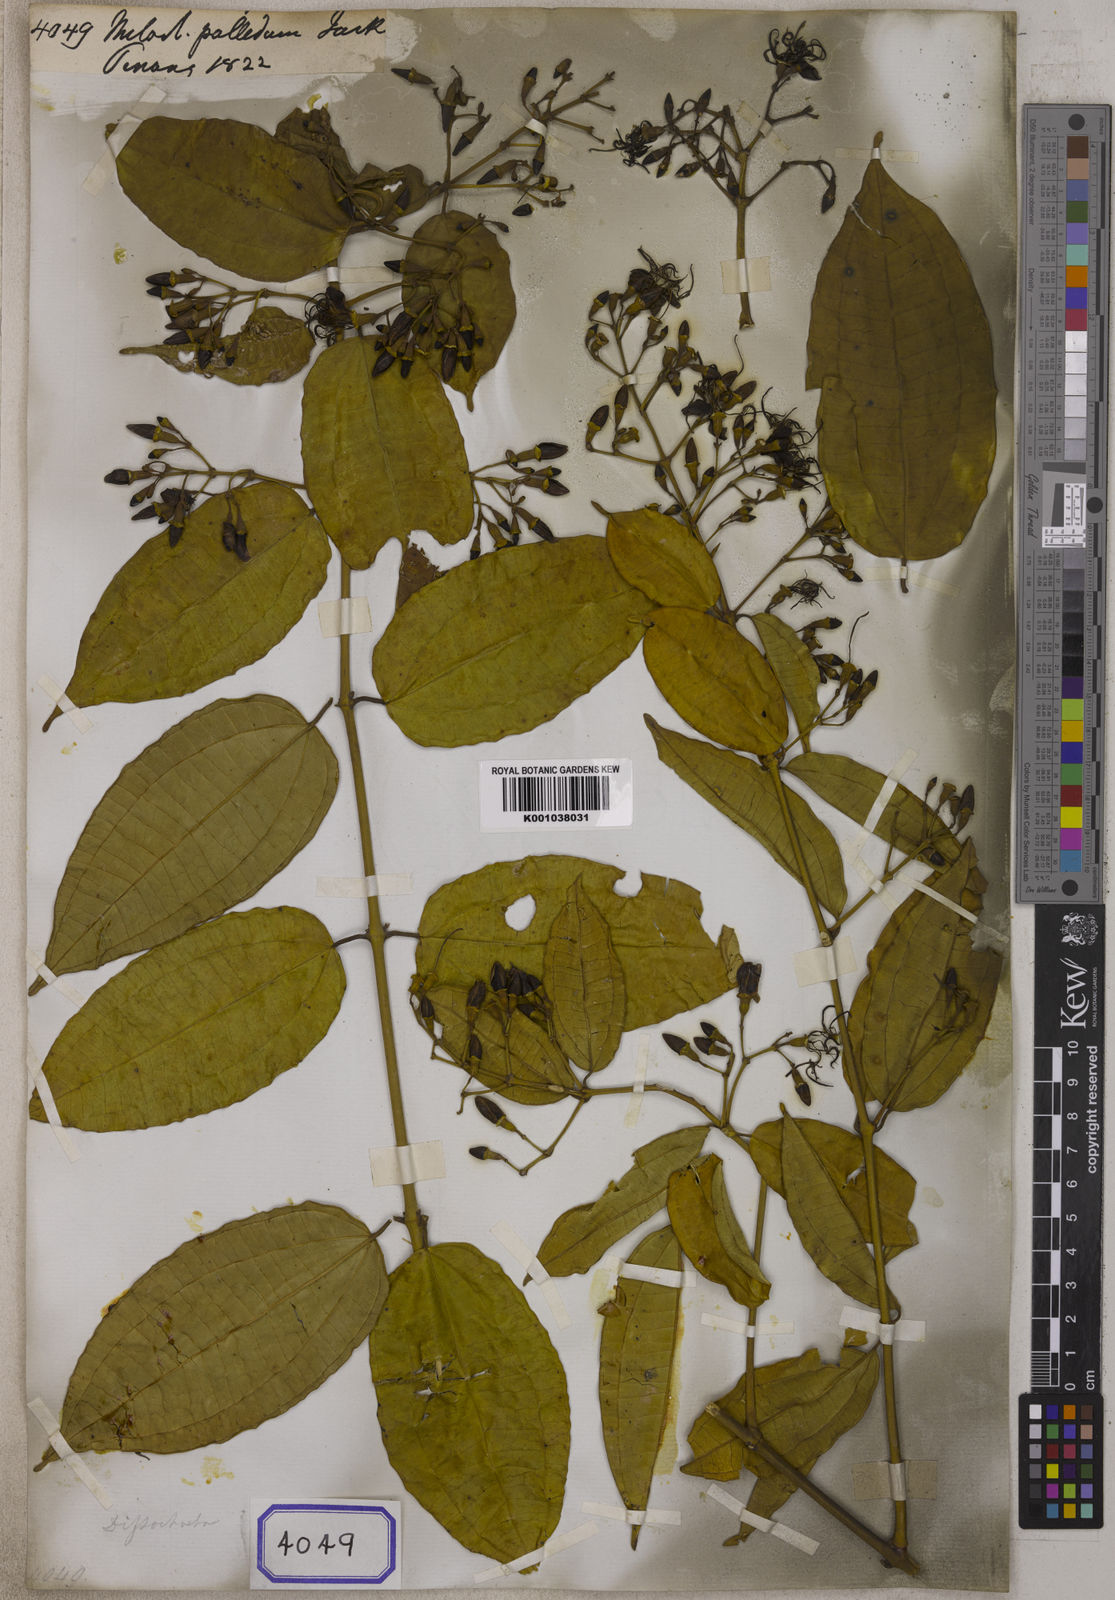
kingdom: Plantae
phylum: Tracheophyta
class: Magnoliopsida
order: Myrtales
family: Melastomataceae
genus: Dissochaeta
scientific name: Dissochaeta pallida
